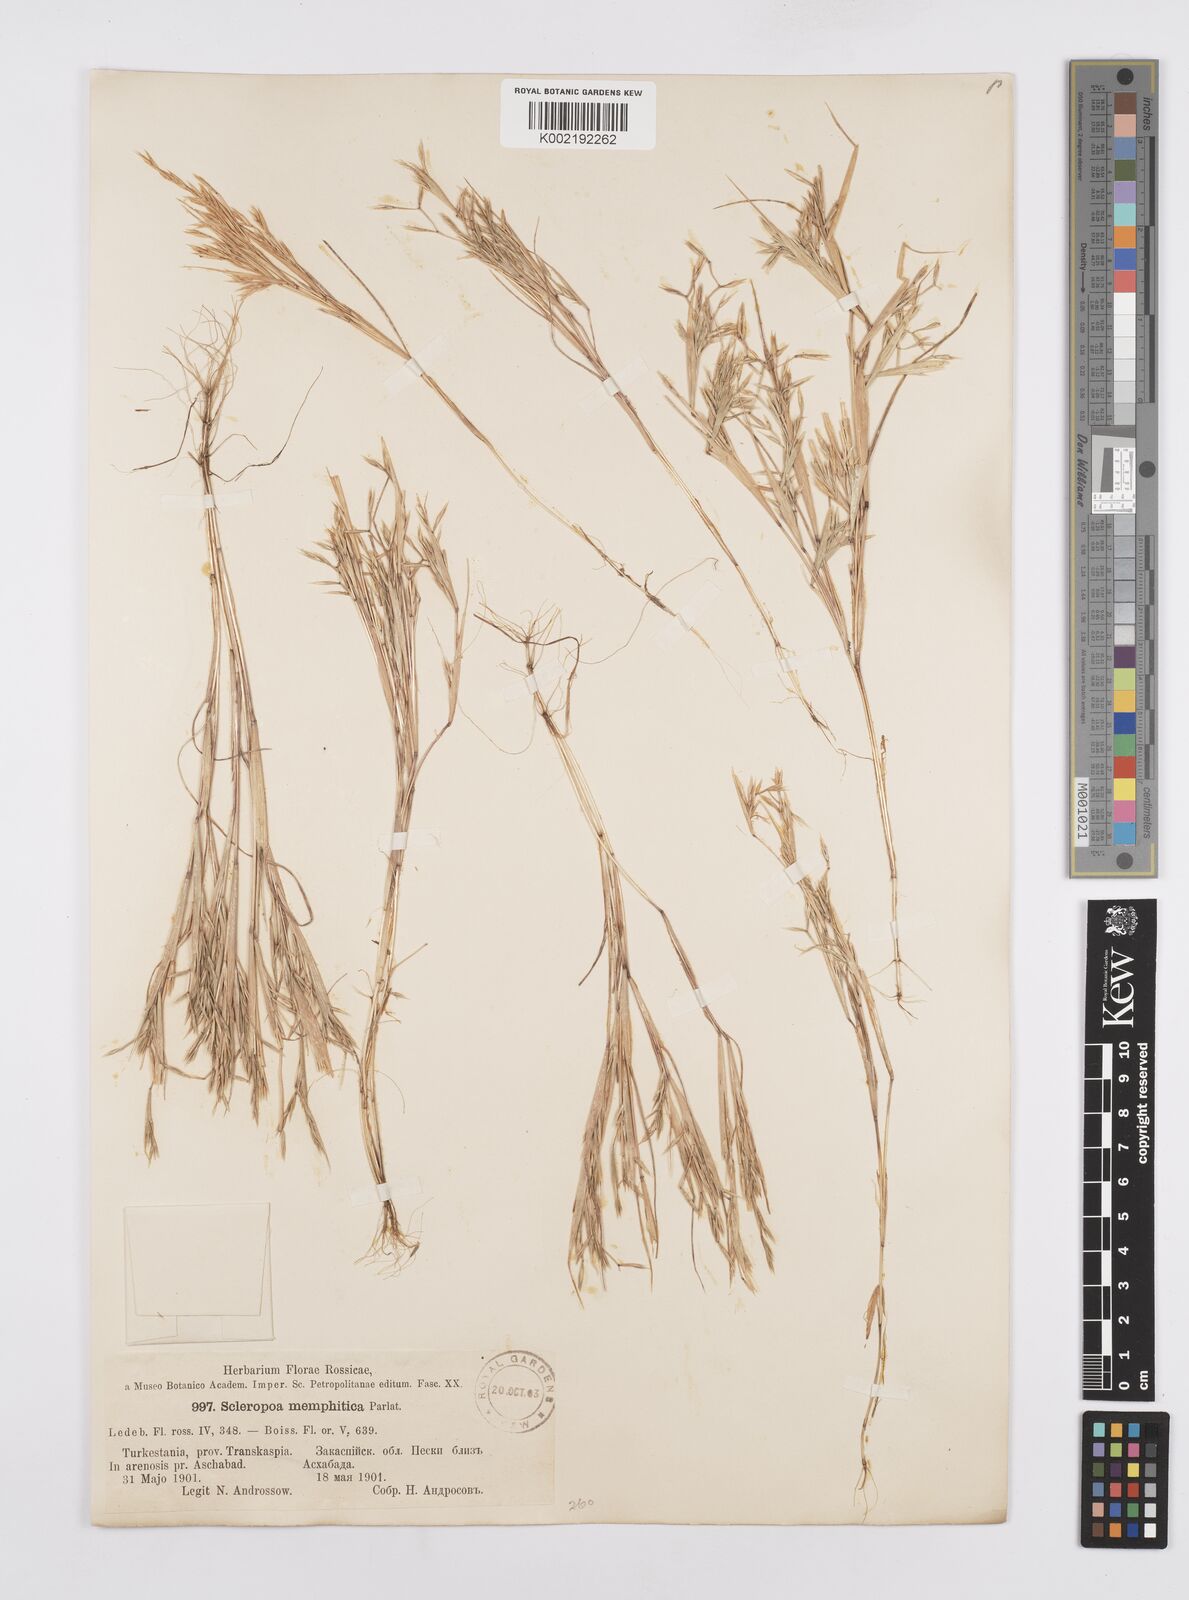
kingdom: Plantae
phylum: Tracheophyta
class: Liliopsida
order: Poales
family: Poaceae
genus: Cutandia
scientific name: Cutandia memphitica
